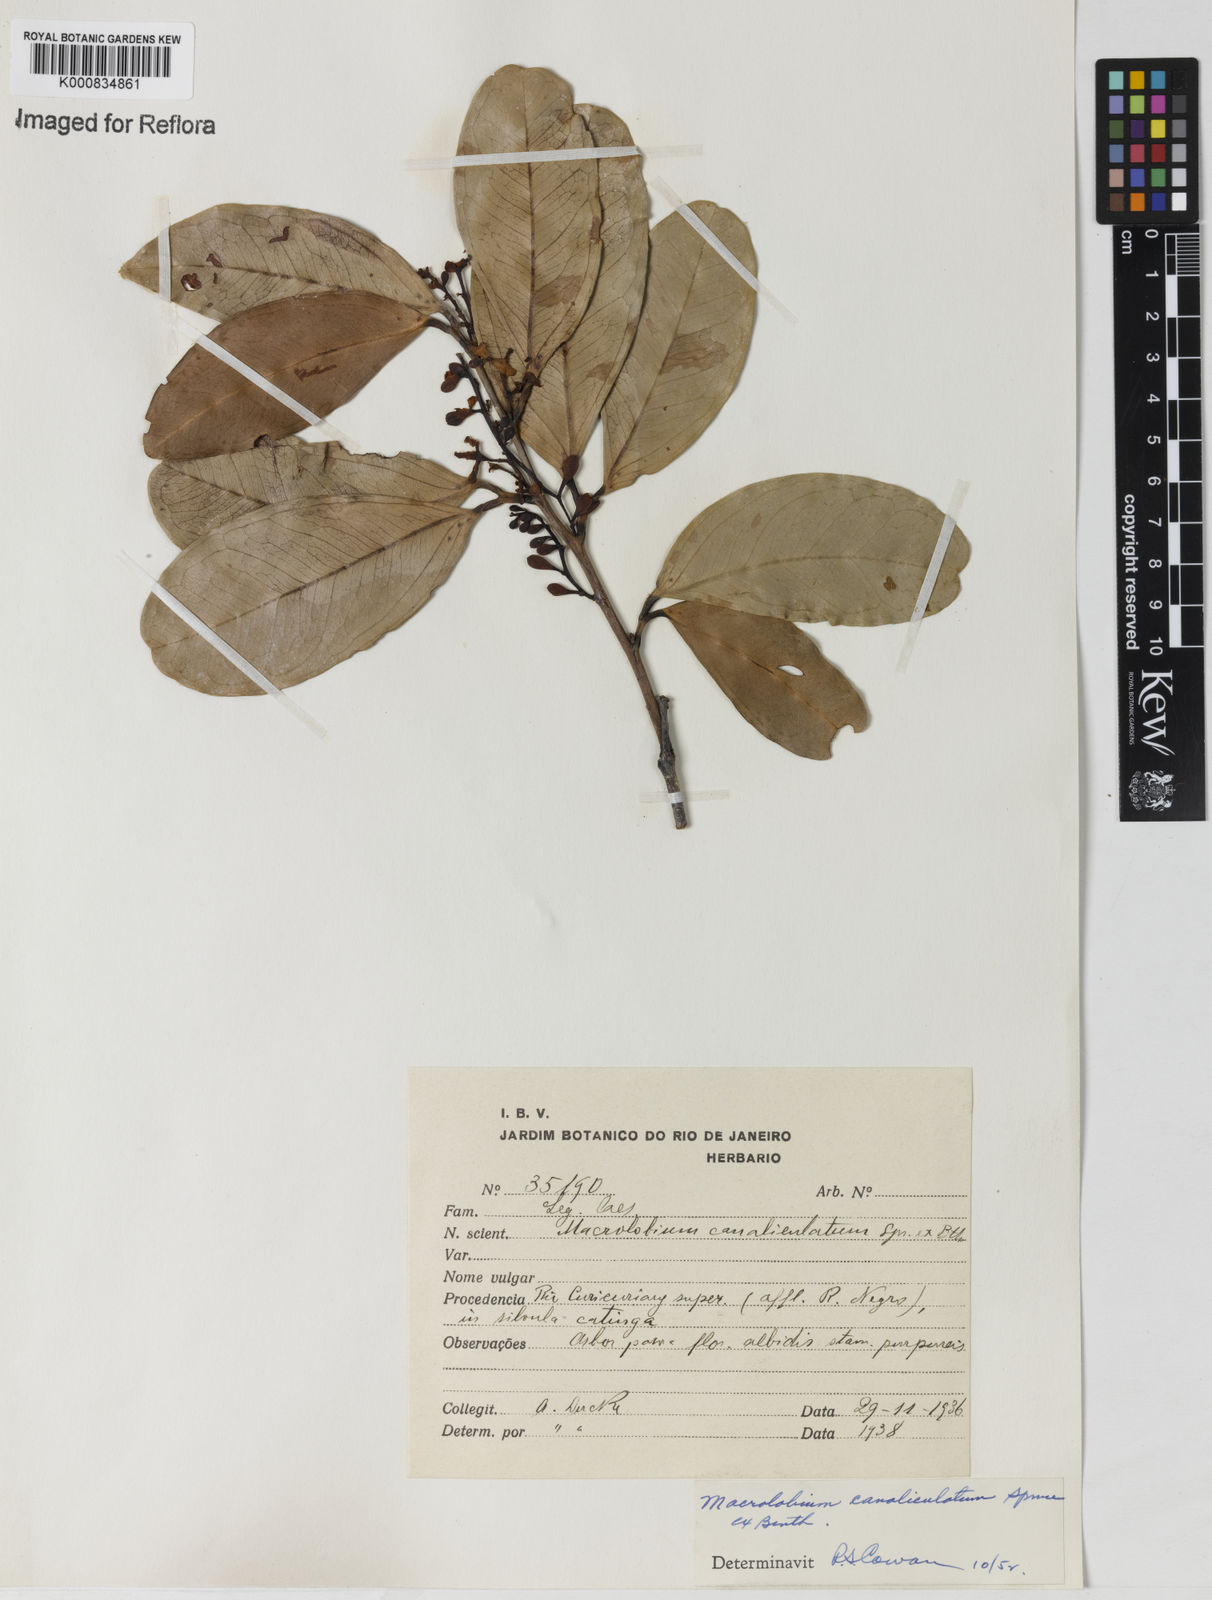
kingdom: Plantae
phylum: Tracheophyta
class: Magnoliopsida
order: Fabales
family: Fabaceae
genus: Macrolobium
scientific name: Macrolobium
